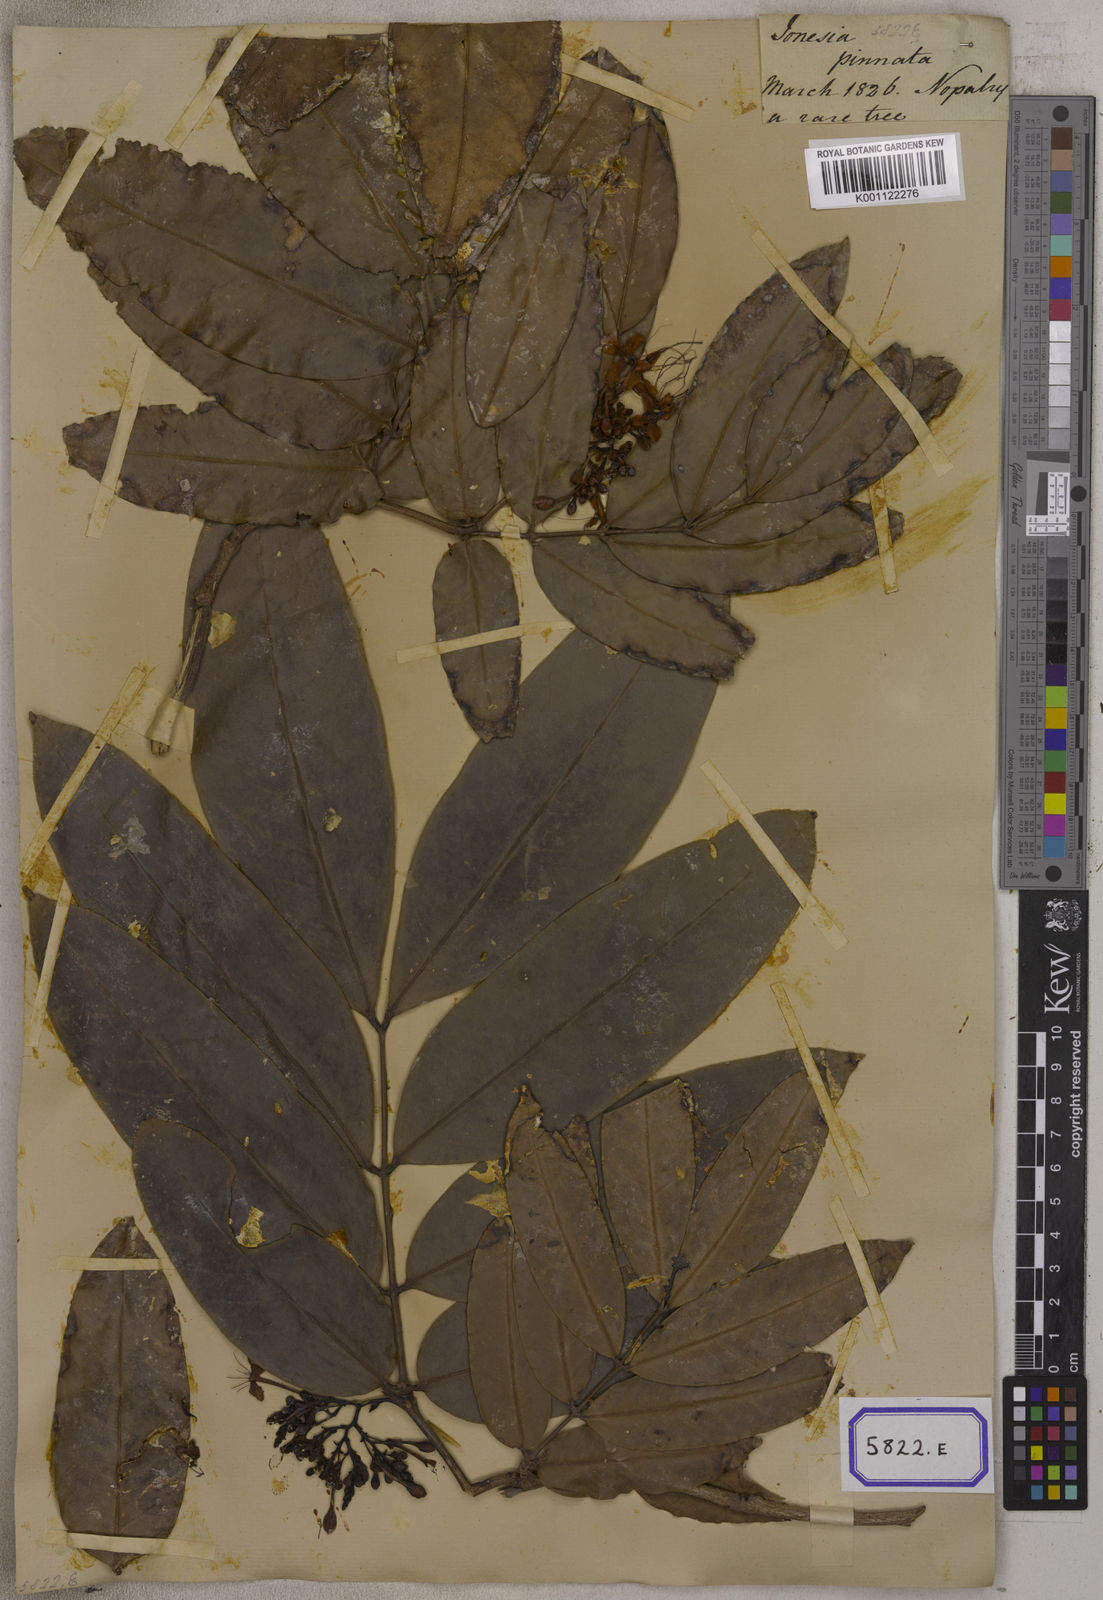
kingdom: Plantae
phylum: Tracheophyta
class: Magnoliopsida
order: Fabales
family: Fabaceae
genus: Saraca
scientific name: Saraca asoca
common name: Asoka-tree
